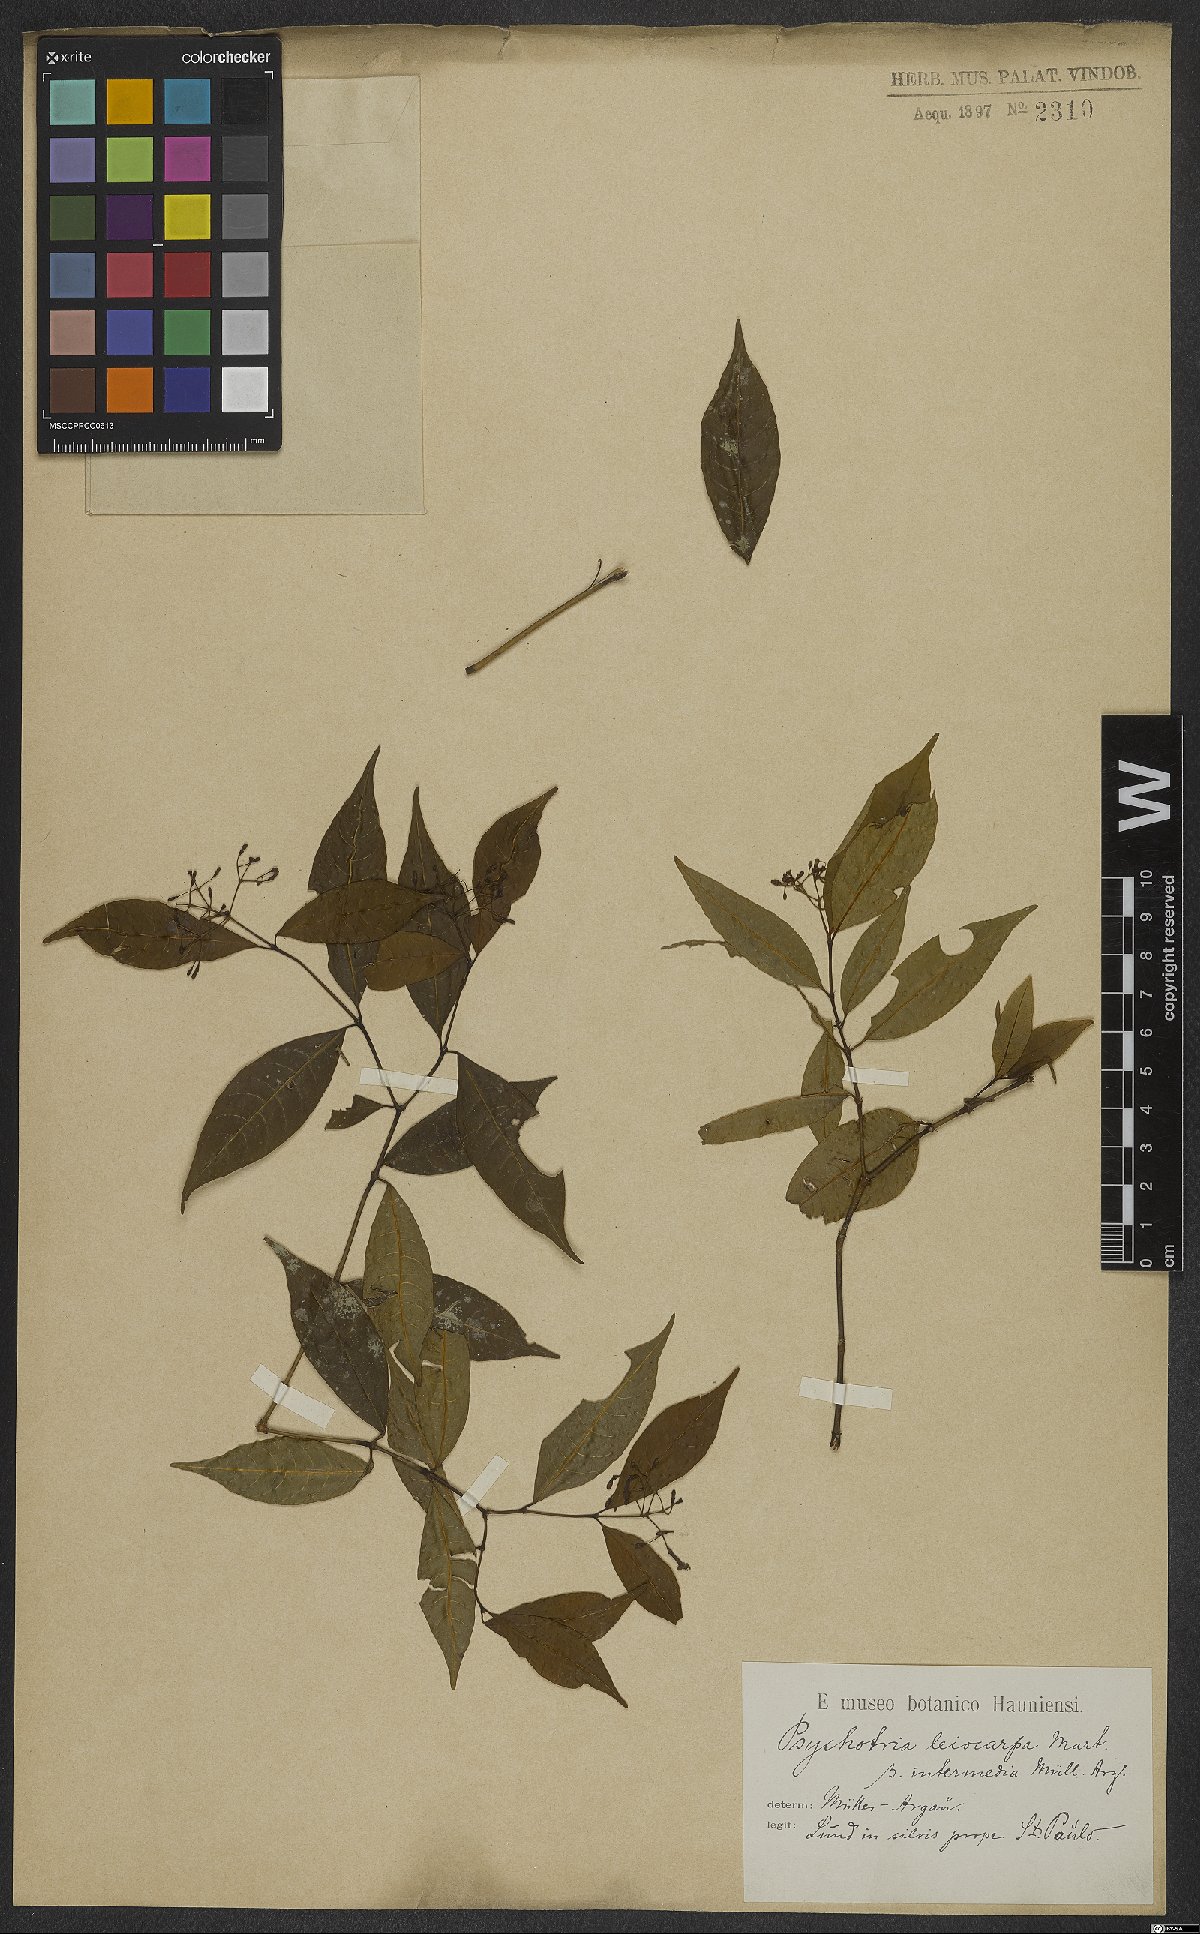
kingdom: Plantae
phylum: Tracheophyta
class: Magnoliopsida
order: Gentianales
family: Rubiaceae
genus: Rudgea
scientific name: Rudgea coronata
